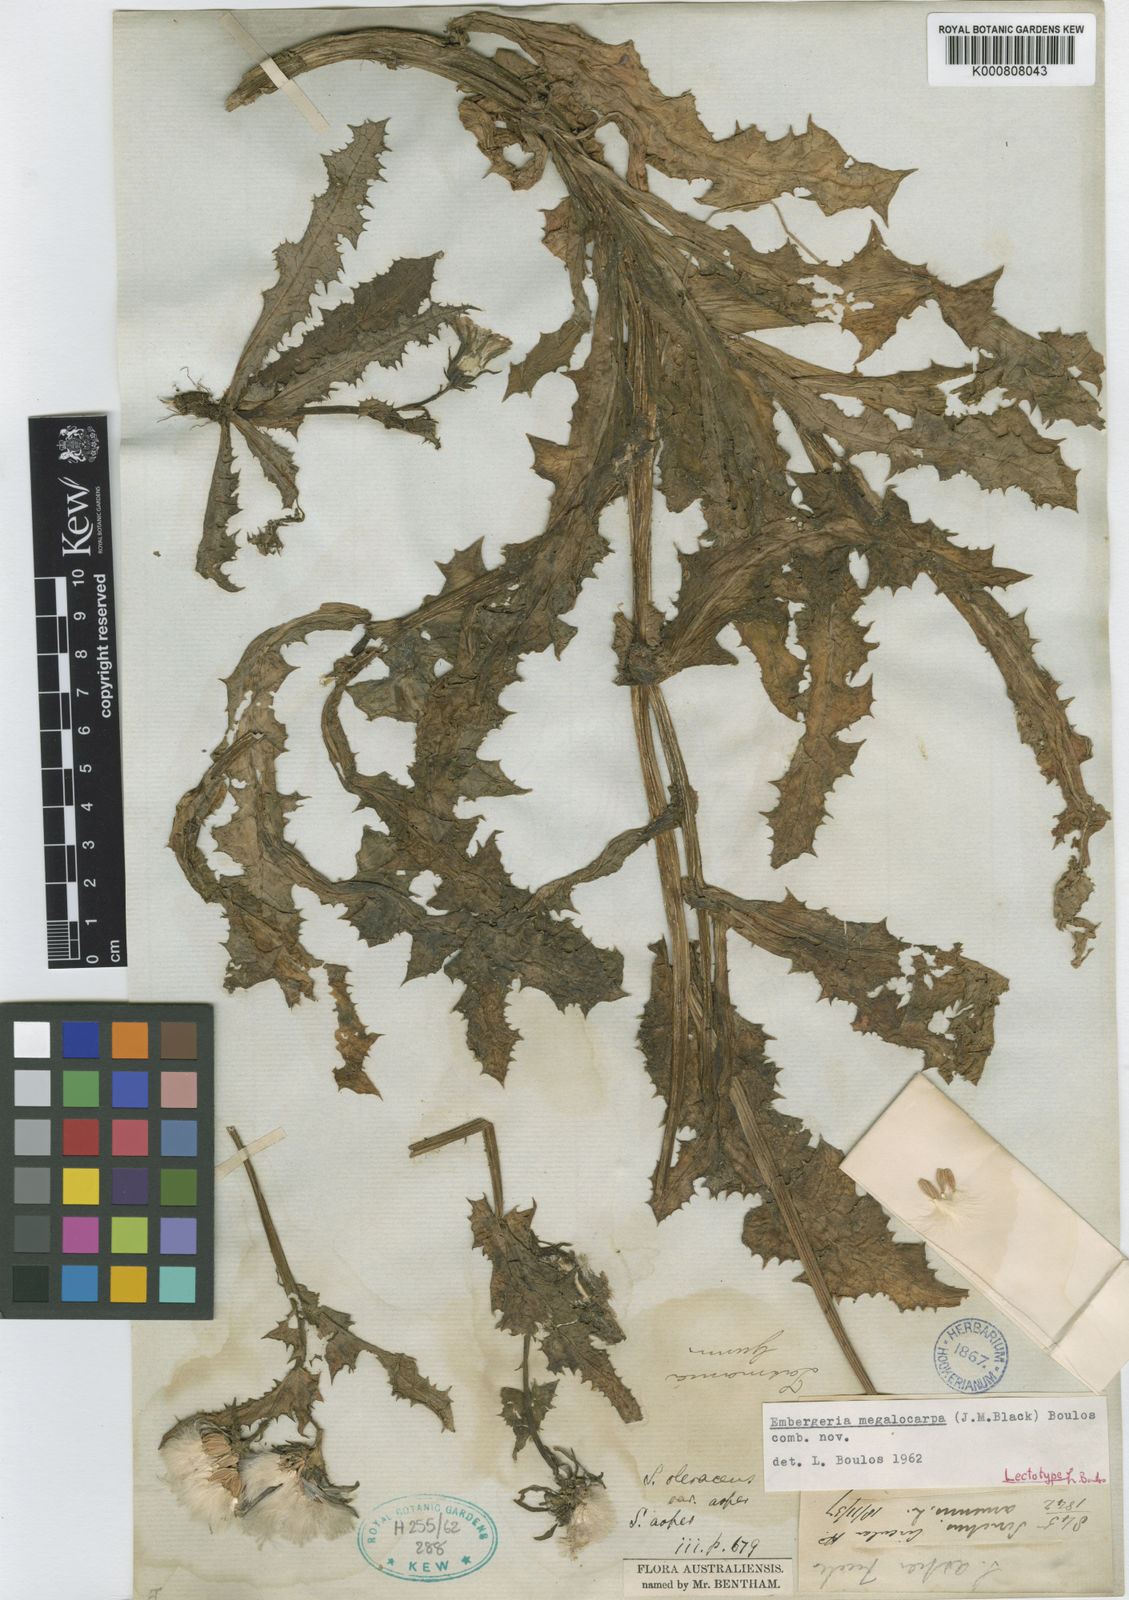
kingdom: Plantae
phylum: Tracheophyta
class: Magnoliopsida
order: Asterales
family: Asteraceae
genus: Sonchus
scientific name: Sonchus megalocarpus
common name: Dune thistle
